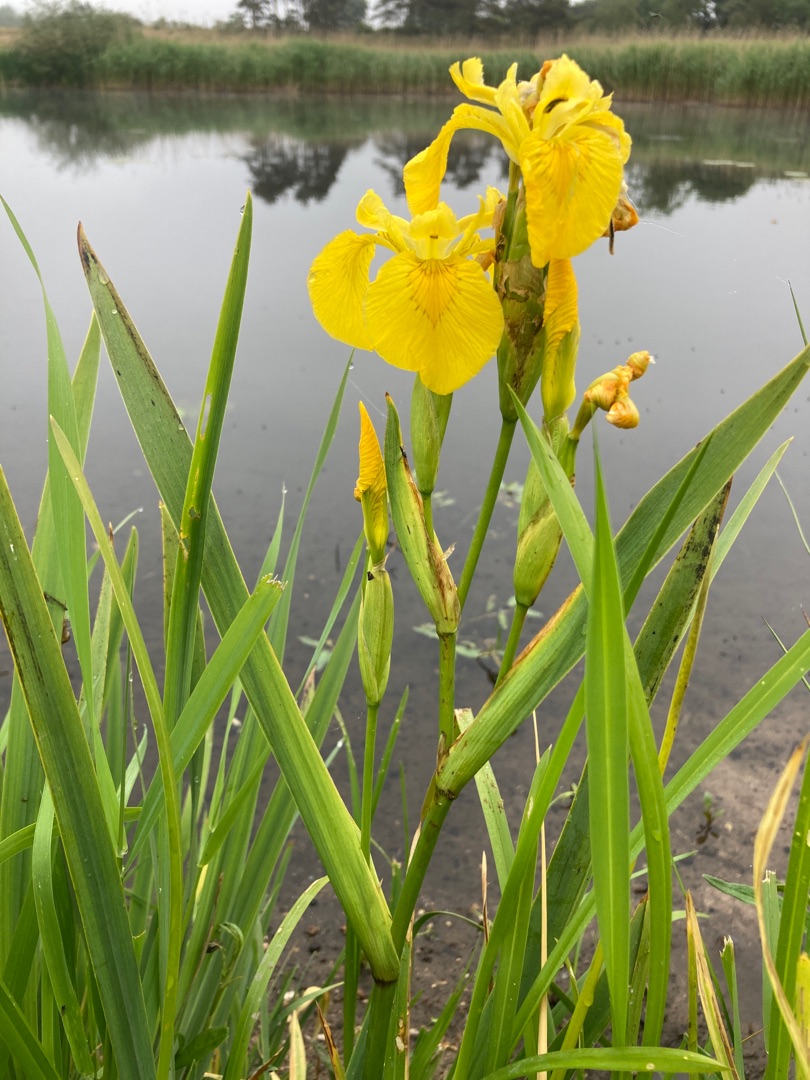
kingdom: Plantae
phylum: Tracheophyta
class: Liliopsida
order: Asparagales
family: Iridaceae
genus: Iris
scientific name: Iris pseudacorus
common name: Gul iris
